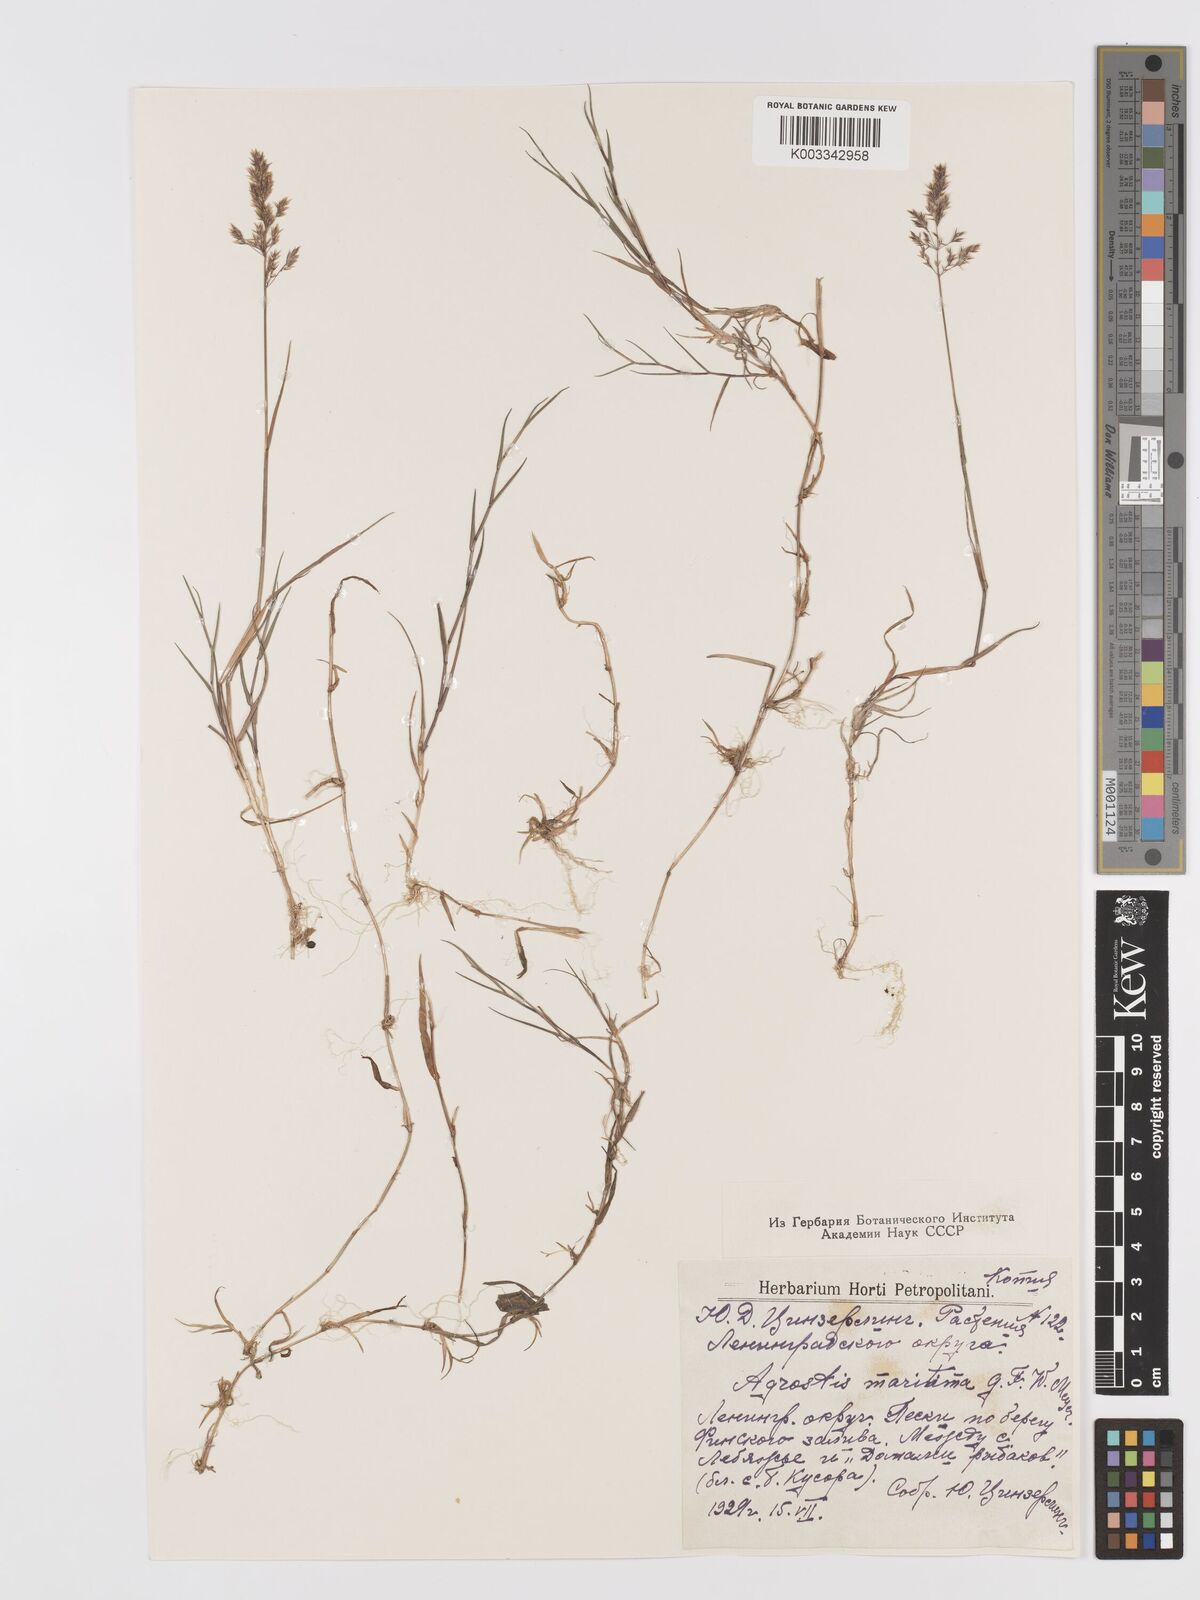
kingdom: Plantae
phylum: Tracheophyta
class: Liliopsida
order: Poales
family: Poaceae
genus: Agrostis
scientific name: Agrostis stolonifera
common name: Creeping bentgrass
